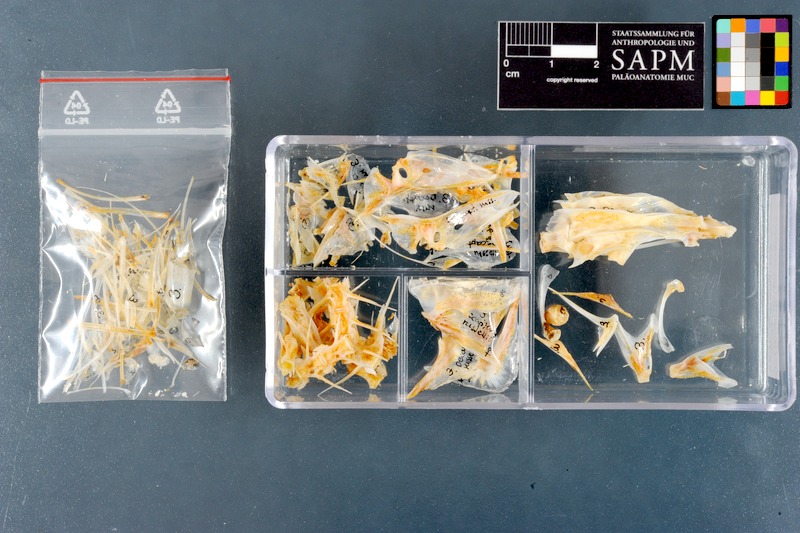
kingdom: Animalia
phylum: Chordata
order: Perciformes
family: Carangidae
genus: Decapterus
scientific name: Decapterus russelli
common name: Indian scad
